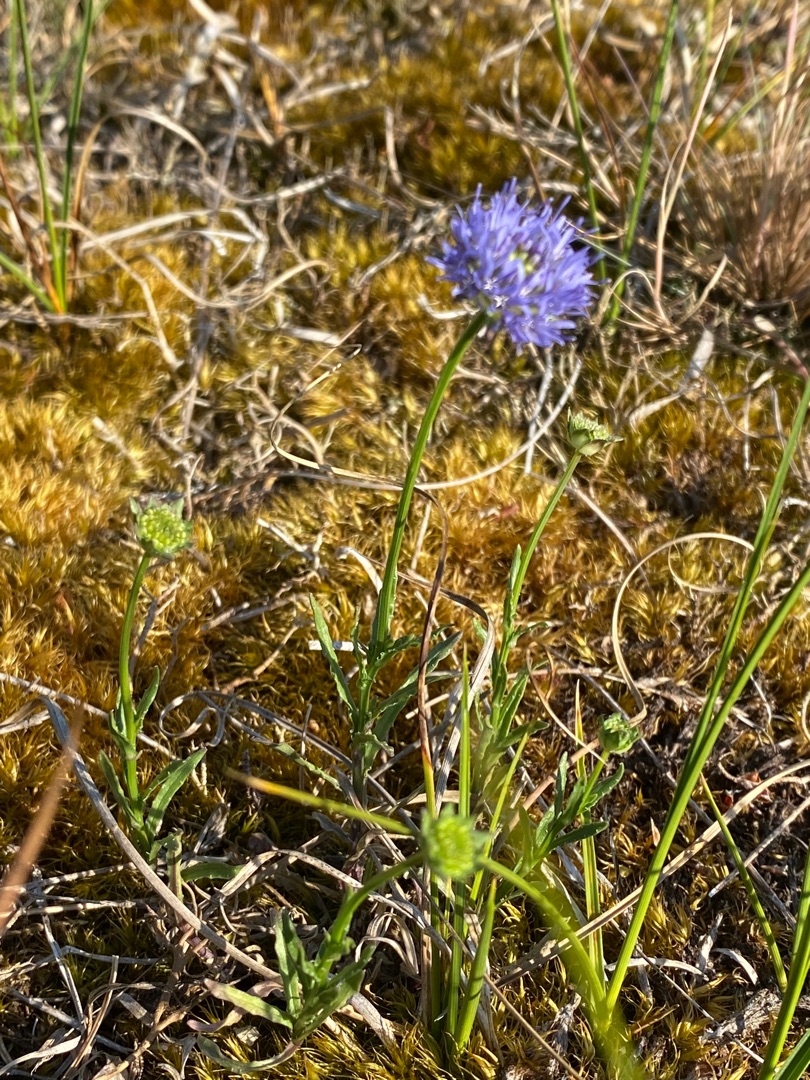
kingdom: Plantae
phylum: Tracheophyta
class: Magnoliopsida
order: Asterales
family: Campanulaceae
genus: Jasione
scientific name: Jasione montana
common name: Blåmunke
